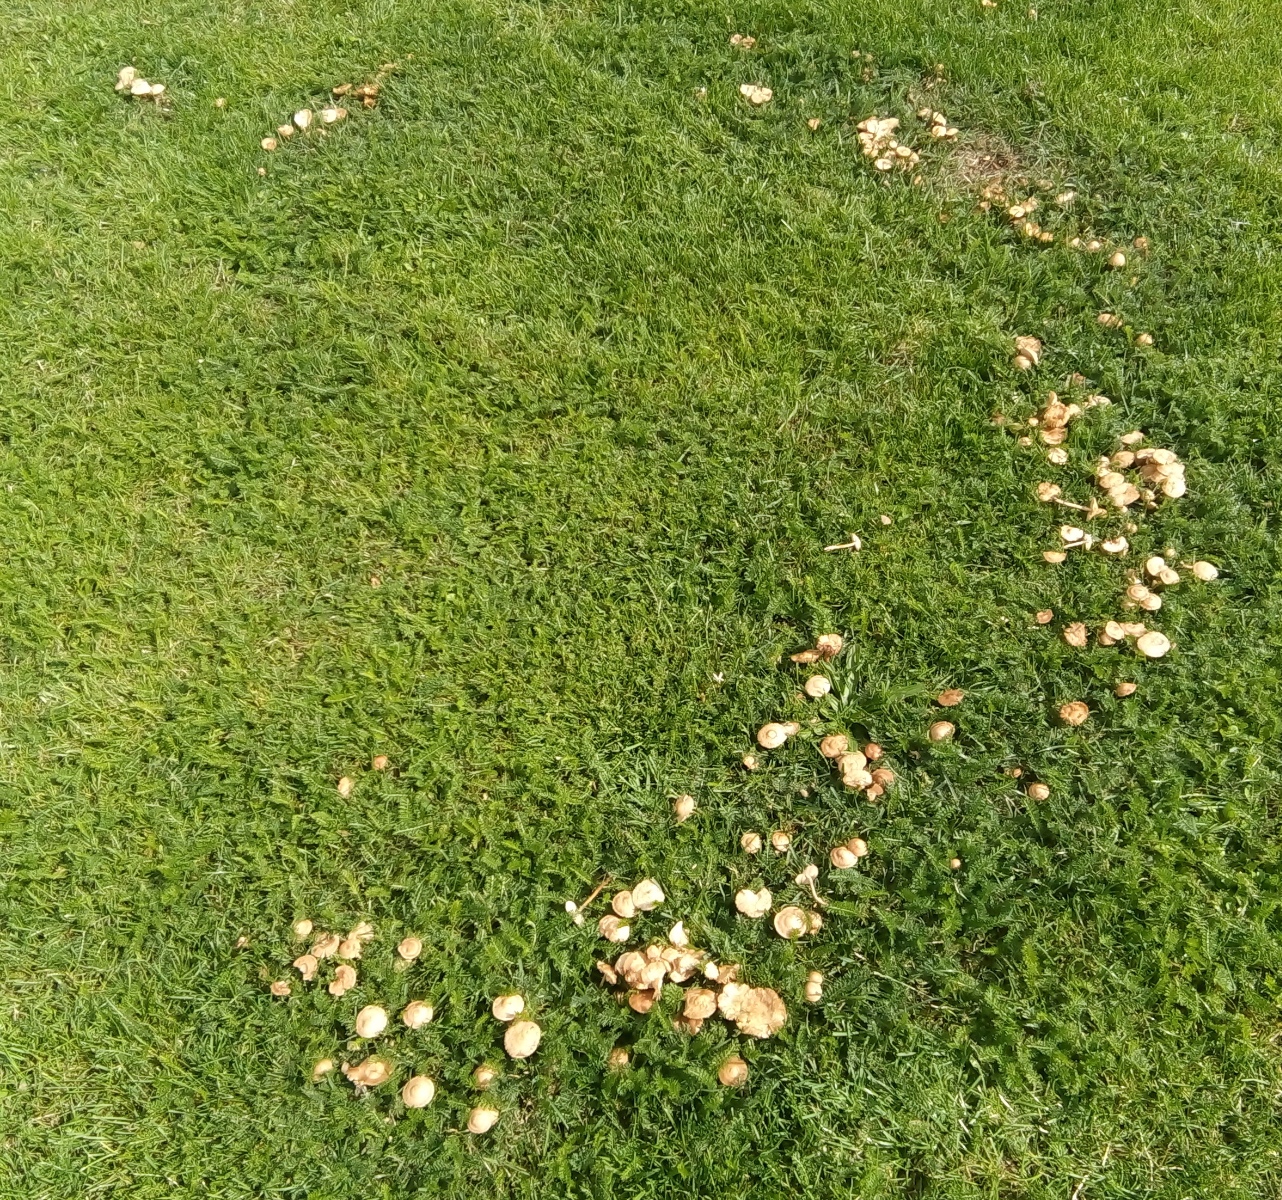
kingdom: Fungi
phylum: Basidiomycota
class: Agaricomycetes
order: Agaricales
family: Marasmiaceae
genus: Marasmius
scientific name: Marasmius oreades
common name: elledans-bruskhat
